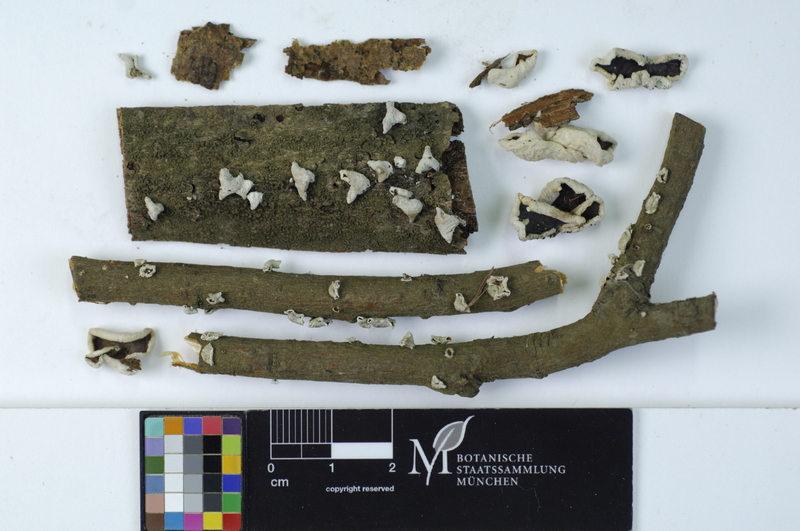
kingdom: Plantae
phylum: Tracheophyta
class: Magnoliopsida
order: Malpighiales
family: Salicaceae
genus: Salix
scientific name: Salix alba
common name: White willow
